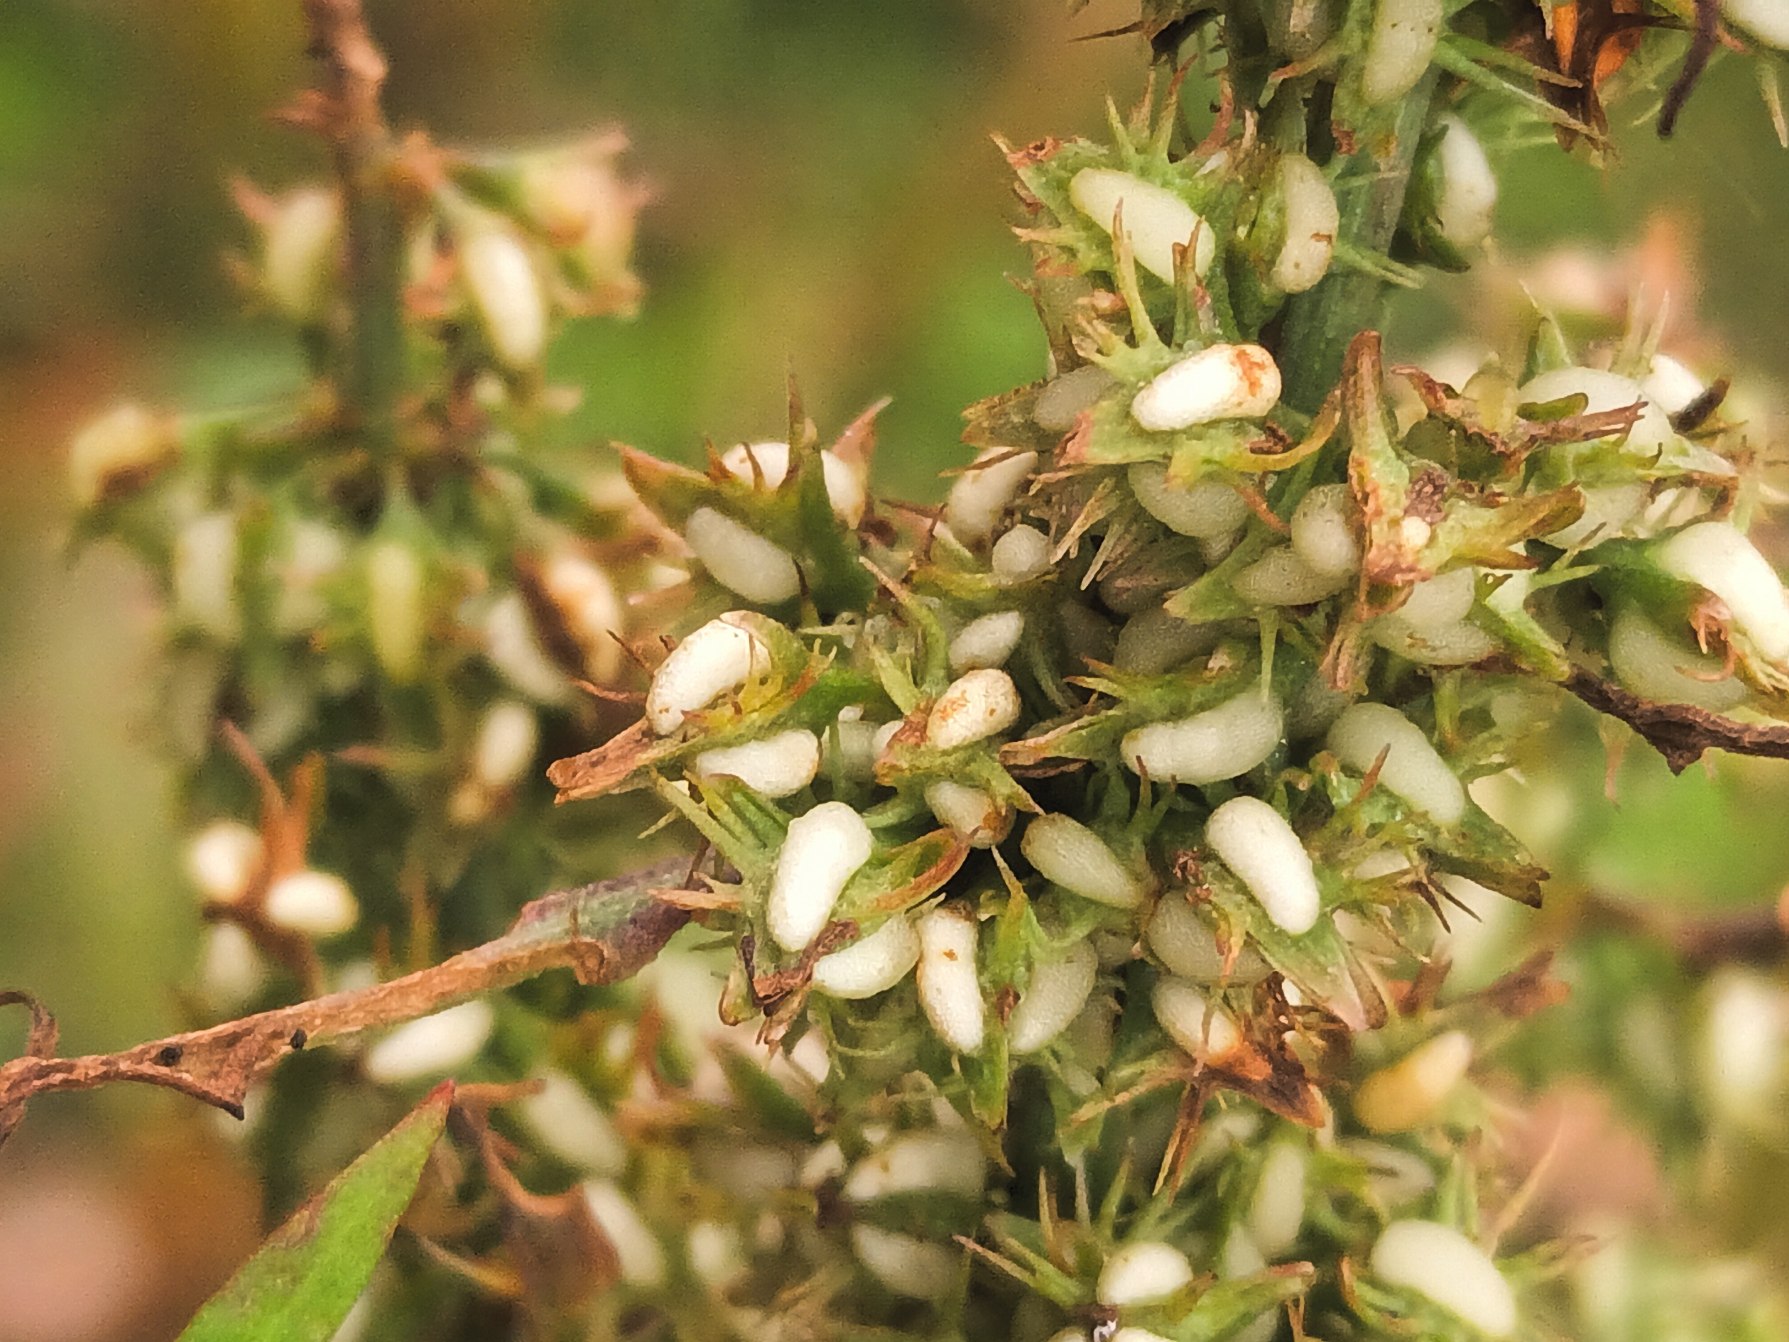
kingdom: Plantae
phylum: Tracheophyta
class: Magnoliopsida
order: Caryophyllales
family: Polygonaceae
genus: Rumex
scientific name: Rumex palustris
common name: Sump-skræppe
